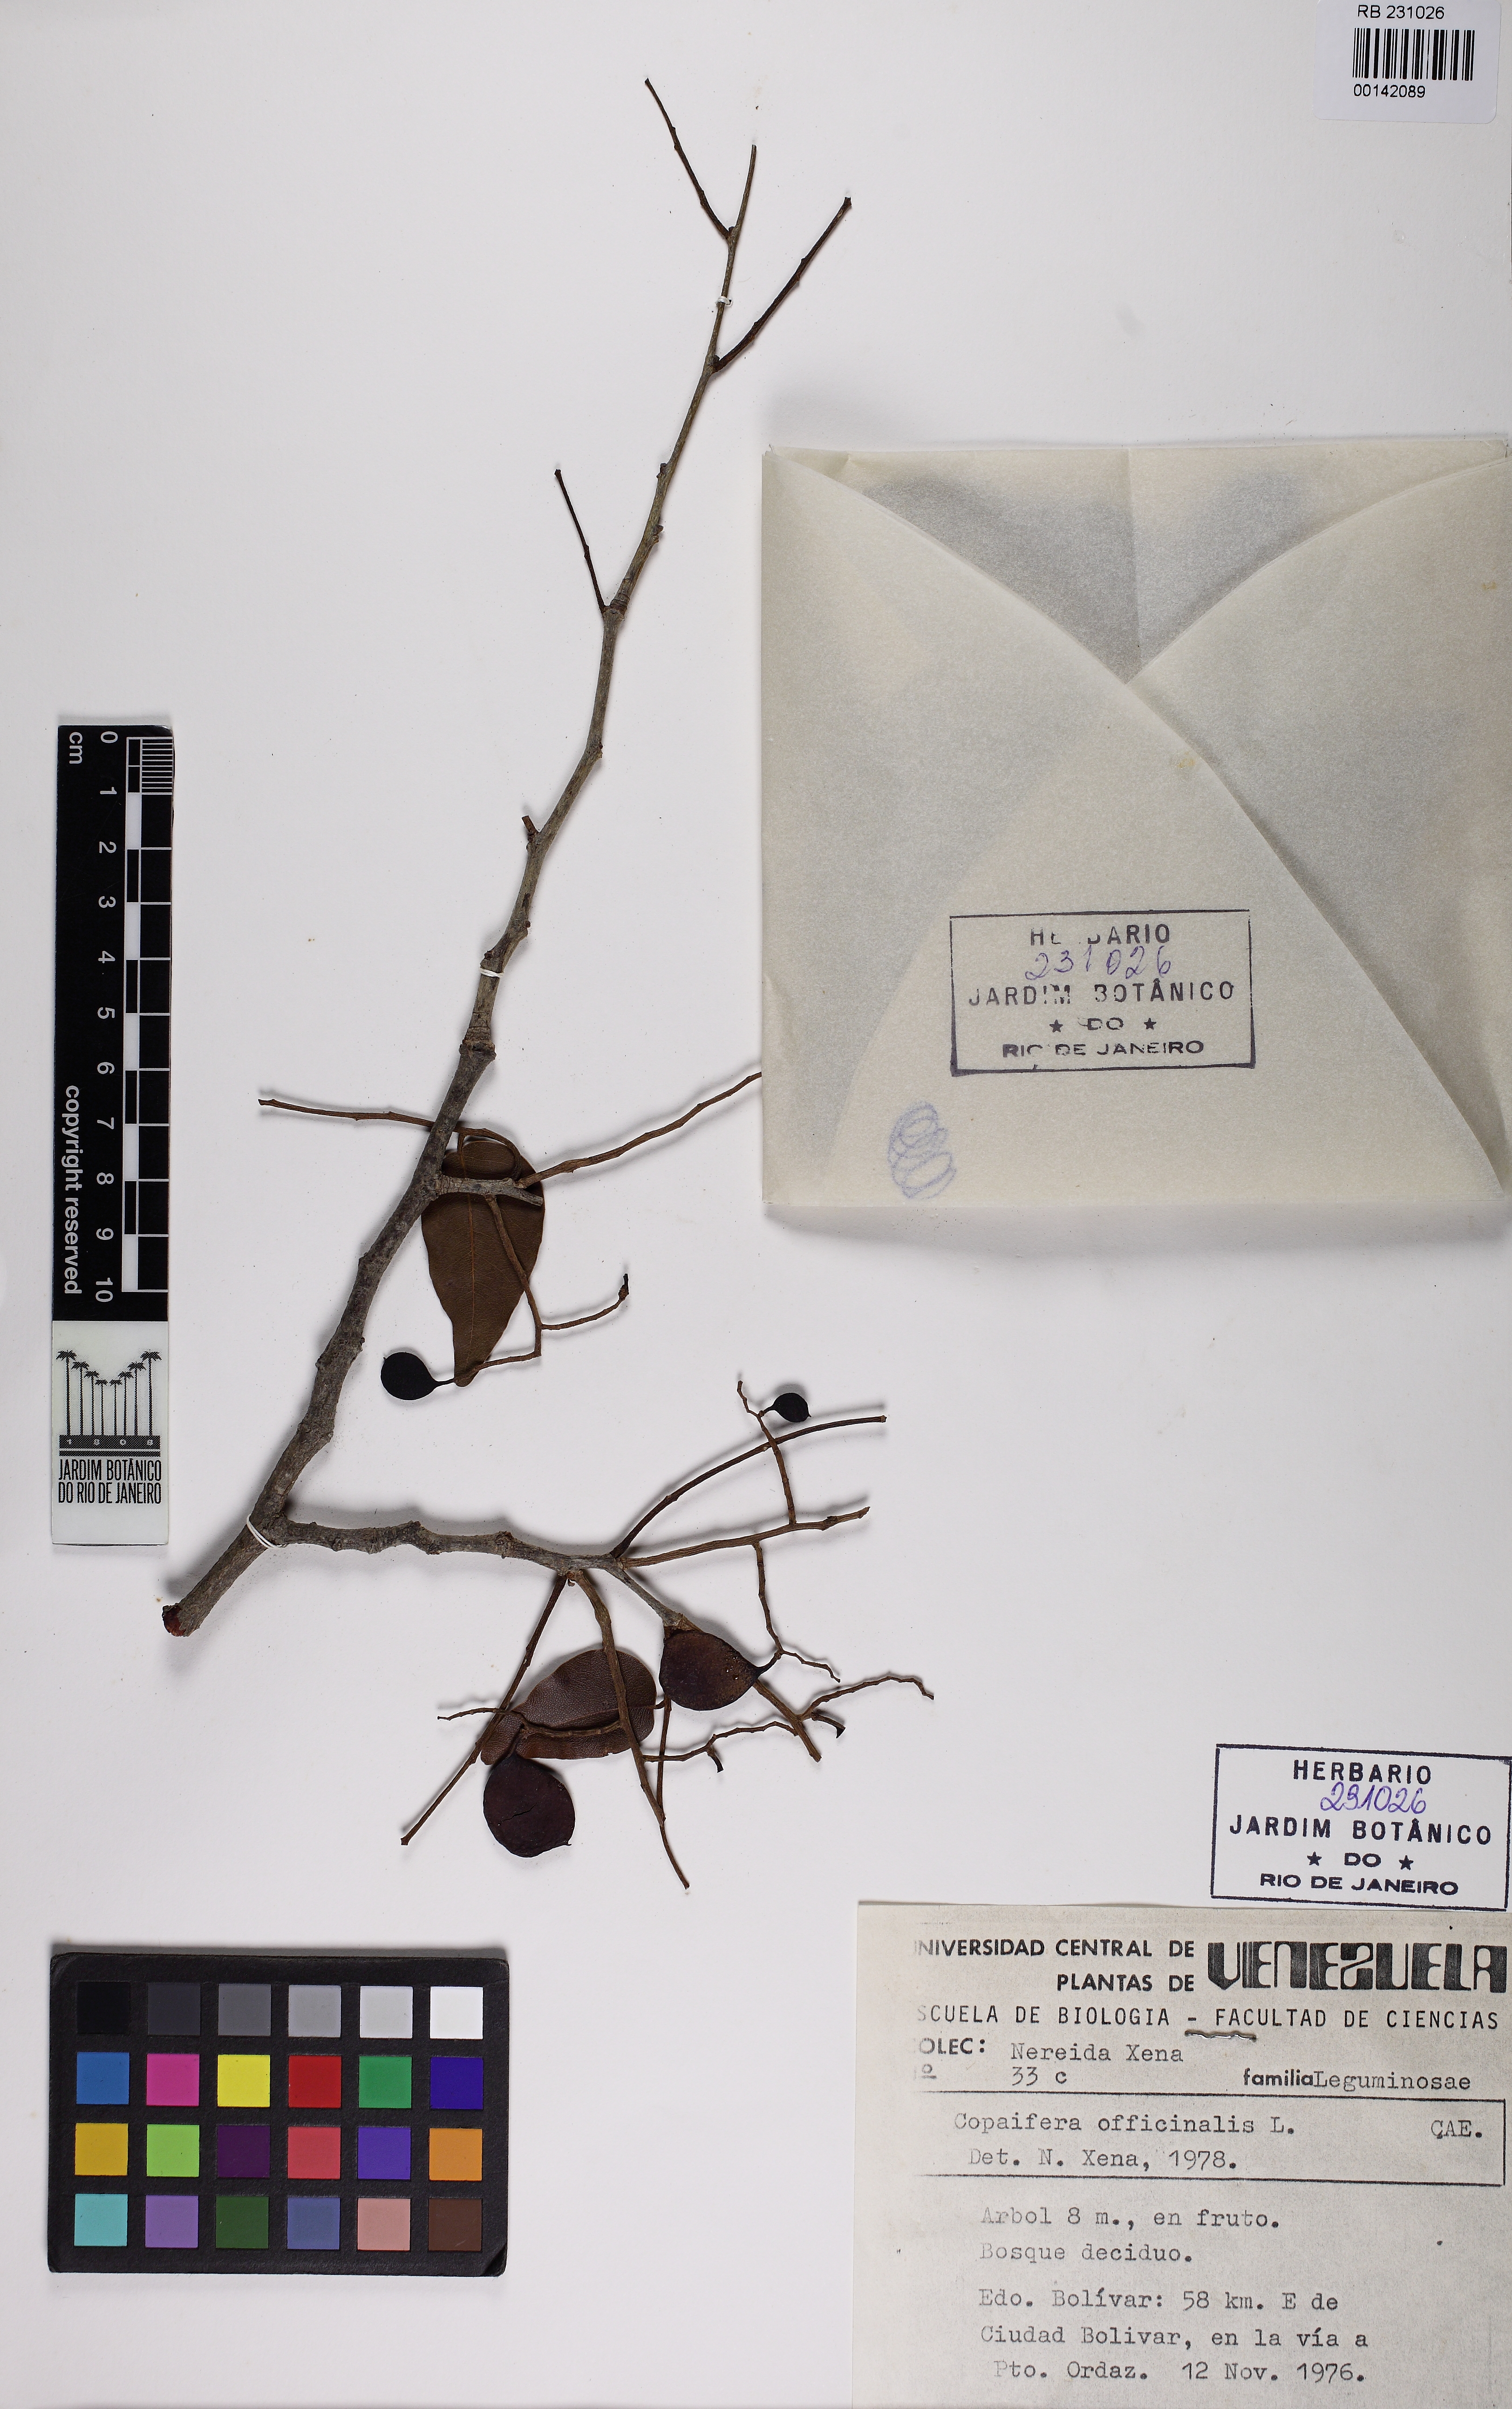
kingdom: Plantae
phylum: Tracheophyta
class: Magnoliopsida
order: Fabales
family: Fabaceae
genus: Copaifera
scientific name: Copaifera officinalis
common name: Copaiba
